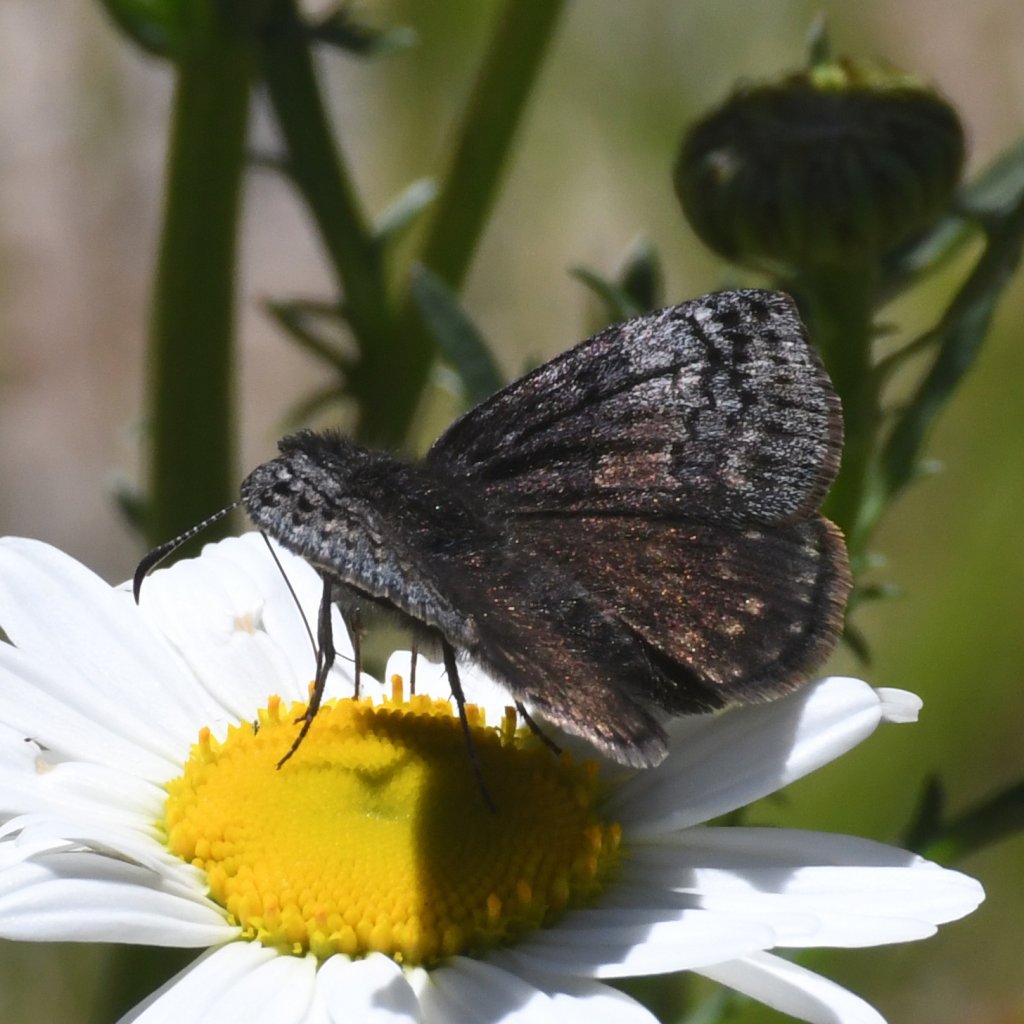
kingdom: Animalia
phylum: Arthropoda
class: Insecta
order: Lepidoptera
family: Hesperiidae
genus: Erynnis
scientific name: Erynnis icelus
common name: Dreamy Duskywing
